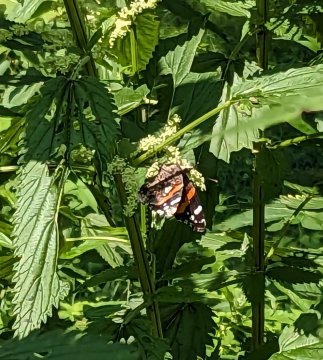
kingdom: Animalia
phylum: Arthropoda
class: Insecta
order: Lepidoptera
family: Nymphalidae
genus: Vanessa
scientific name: Vanessa atalanta
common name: Red Admiral
